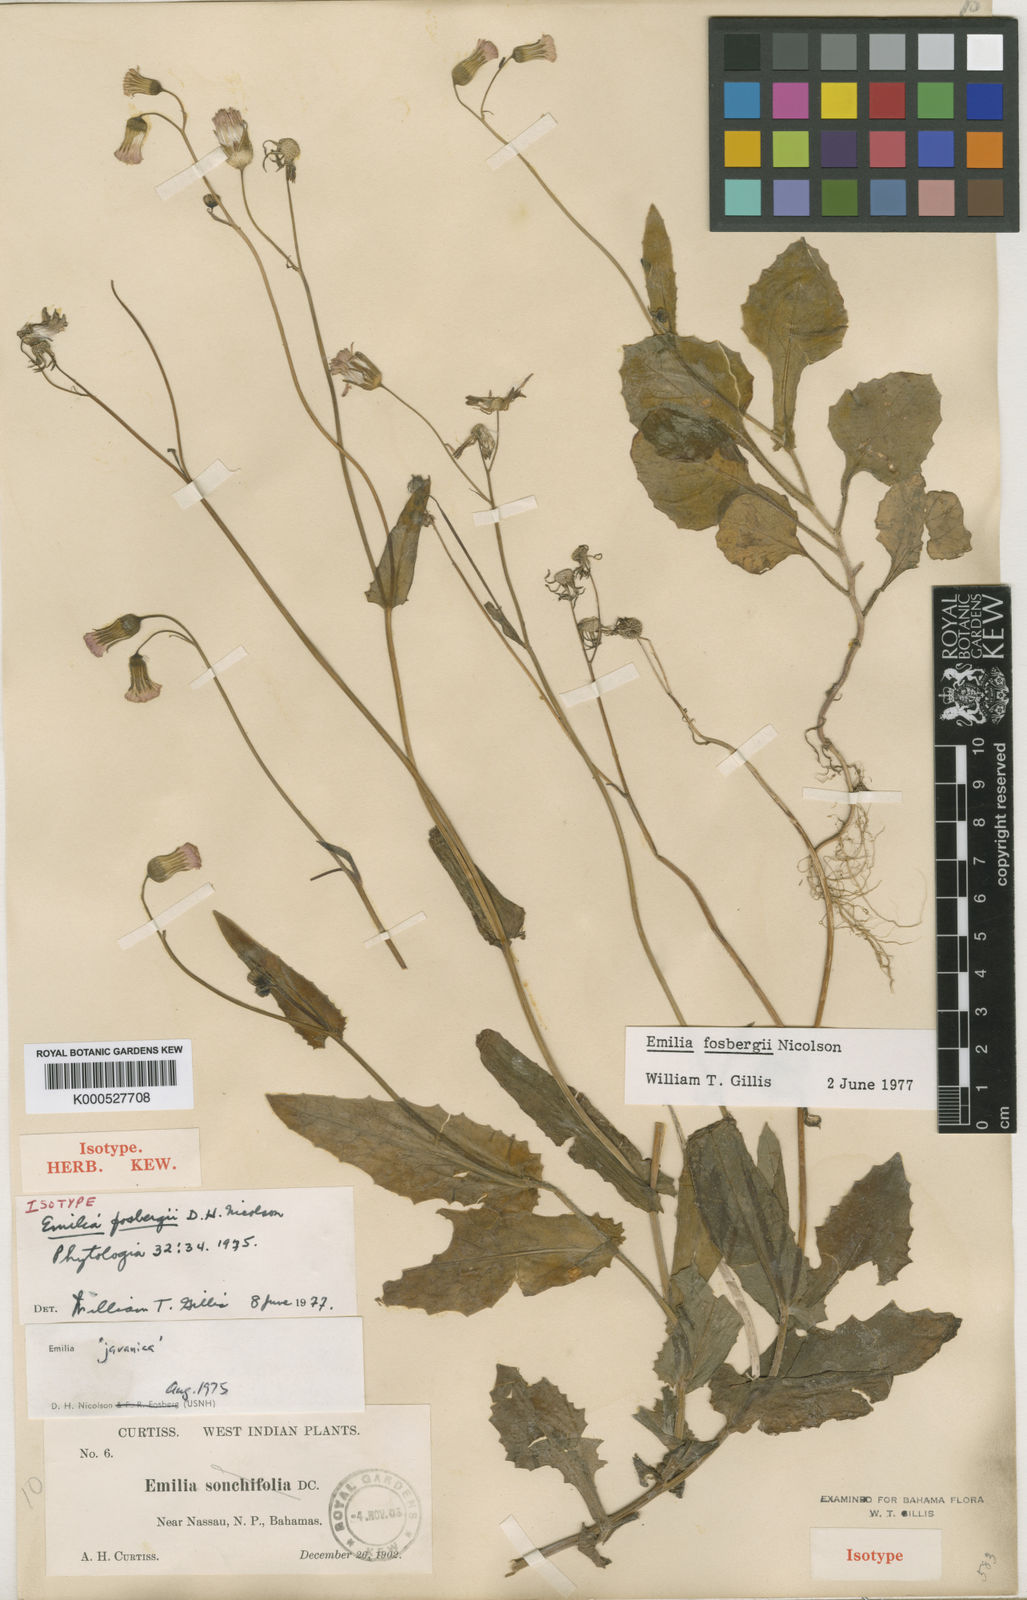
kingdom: Plantae
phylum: Tracheophyta
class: Magnoliopsida
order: Asterales
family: Asteraceae
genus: Emilia
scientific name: Emilia fosbergii
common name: Florida tasselflower
